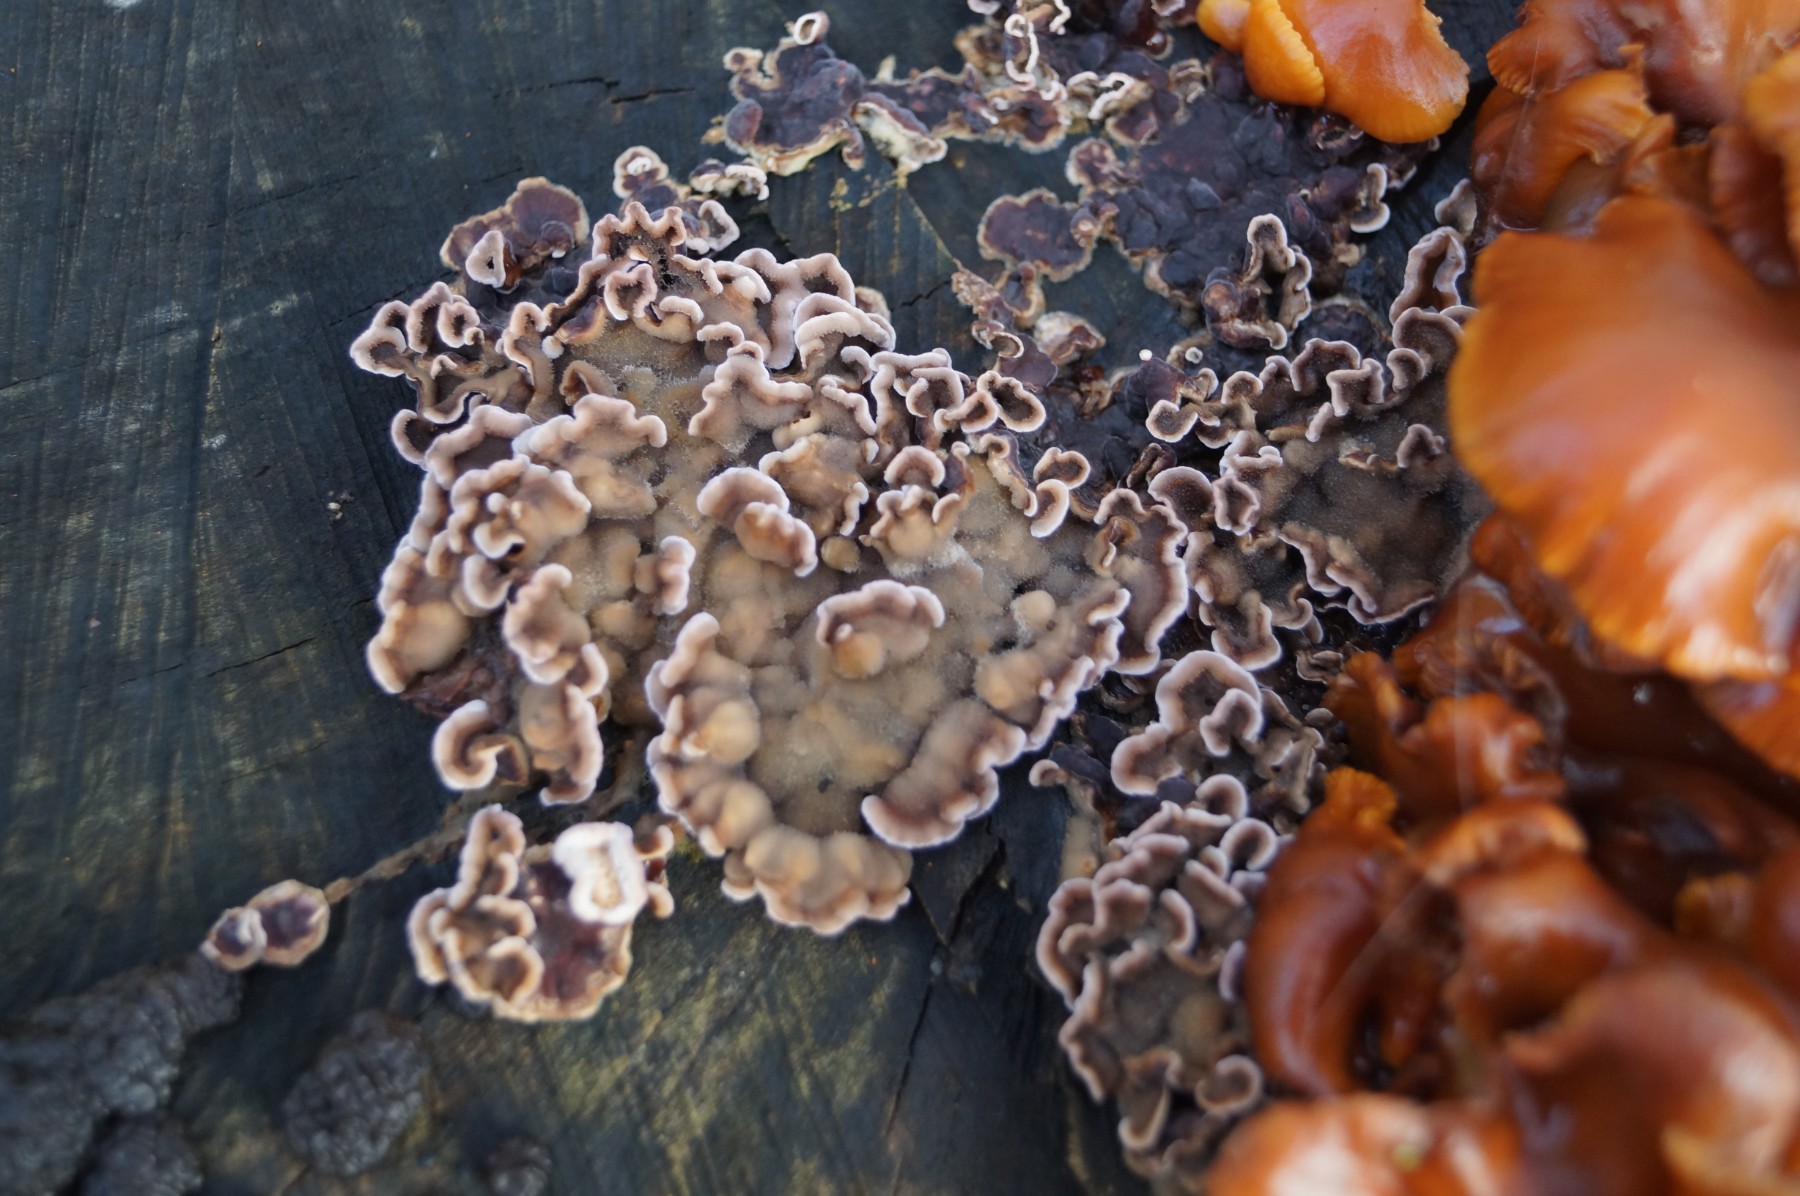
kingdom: Fungi
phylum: Basidiomycota
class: Agaricomycetes
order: Agaricales
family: Cyphellaceae
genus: Chondrostereum
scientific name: Chondrostereum purpureum
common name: purpurlædersvamp
